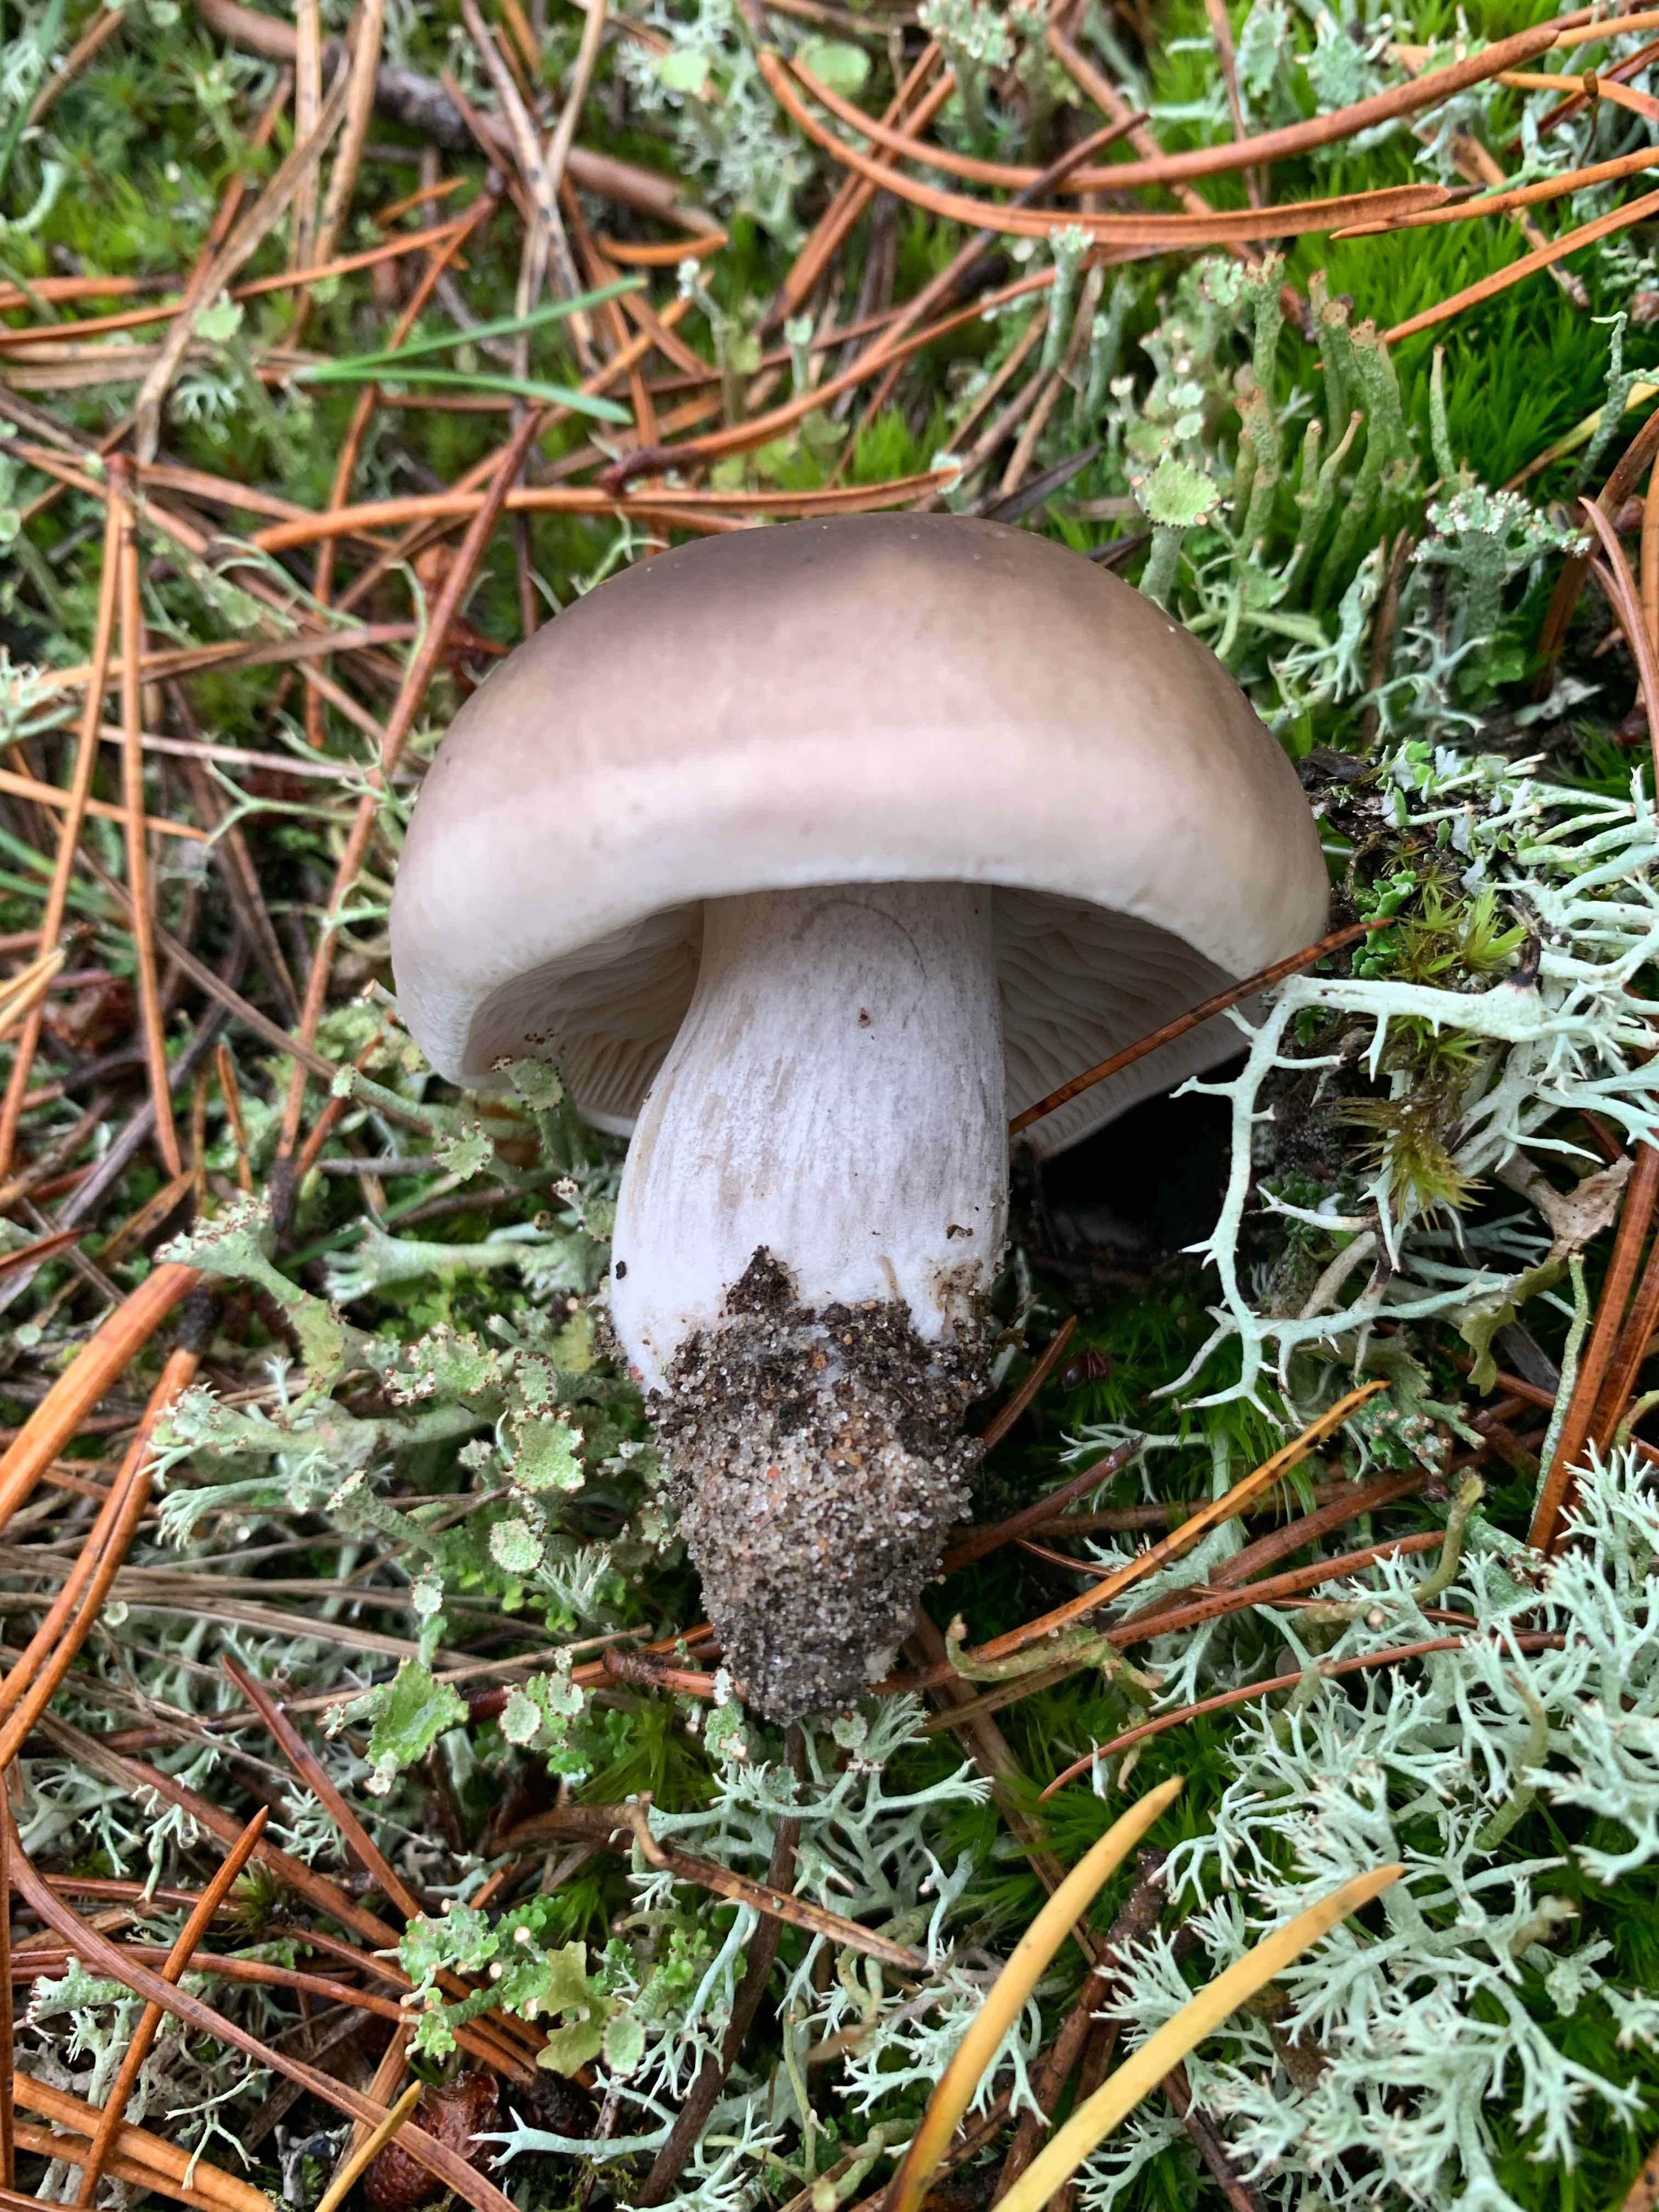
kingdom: Fungi
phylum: Basidiomycota
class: Agaricomycetes
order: Agaricales
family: Tricholomataceae
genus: Tricholoma
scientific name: Tricholoma sudum
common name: tør ridderhat
